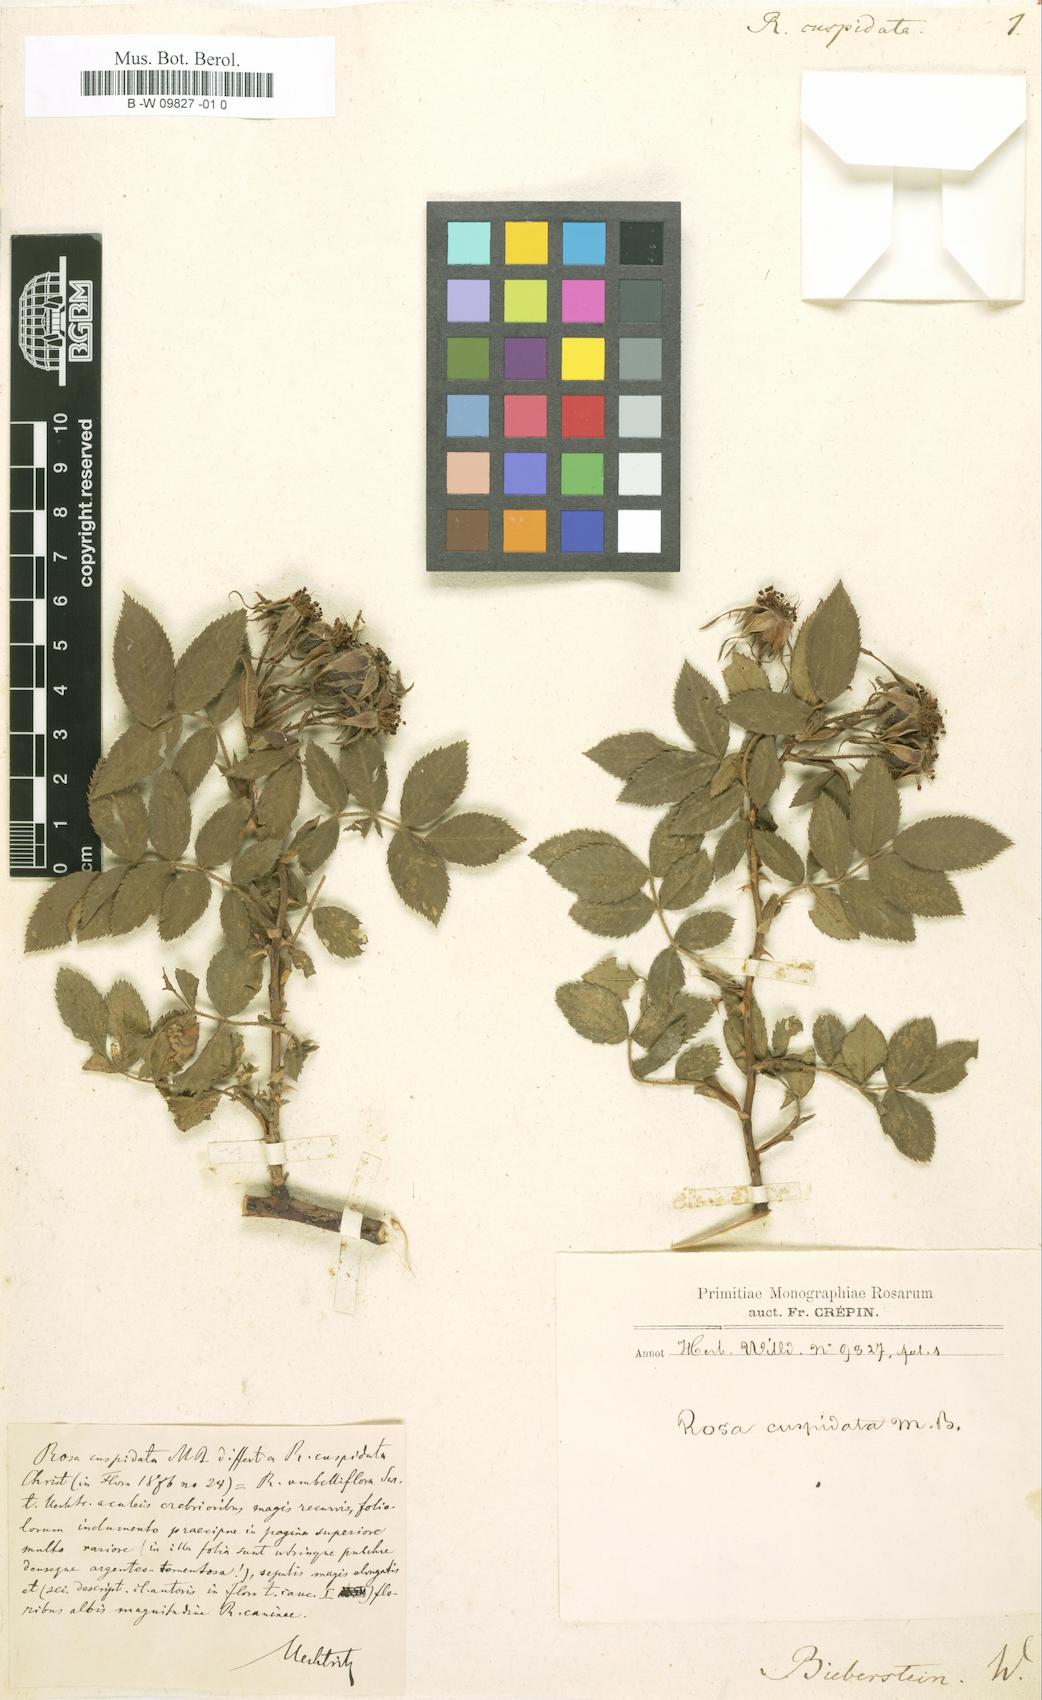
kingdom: Plantae
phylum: Tracheophyta
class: Magnoliopsida
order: Rosales
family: Rosaceae
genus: Rosa
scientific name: Rosa tomentosa
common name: Downy rose
